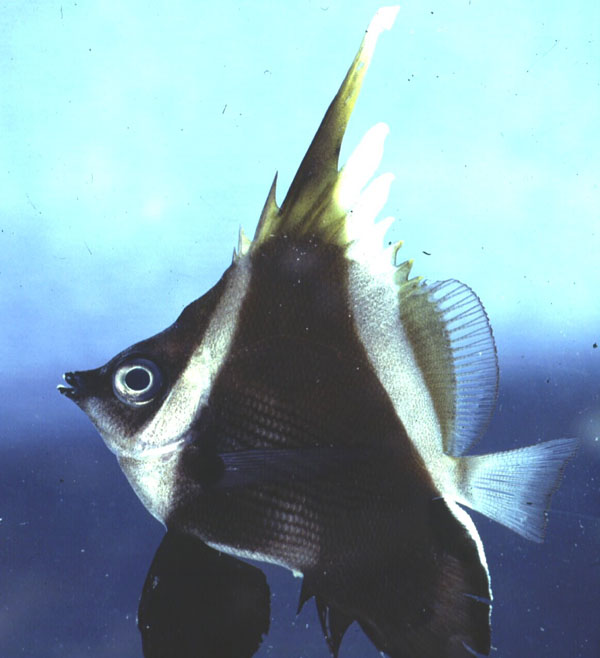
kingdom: Animalia
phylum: Chordata
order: Perciformes
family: Chaetodontidae
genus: Heniochus
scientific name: Heniochus varius
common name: Horned bannerfish
